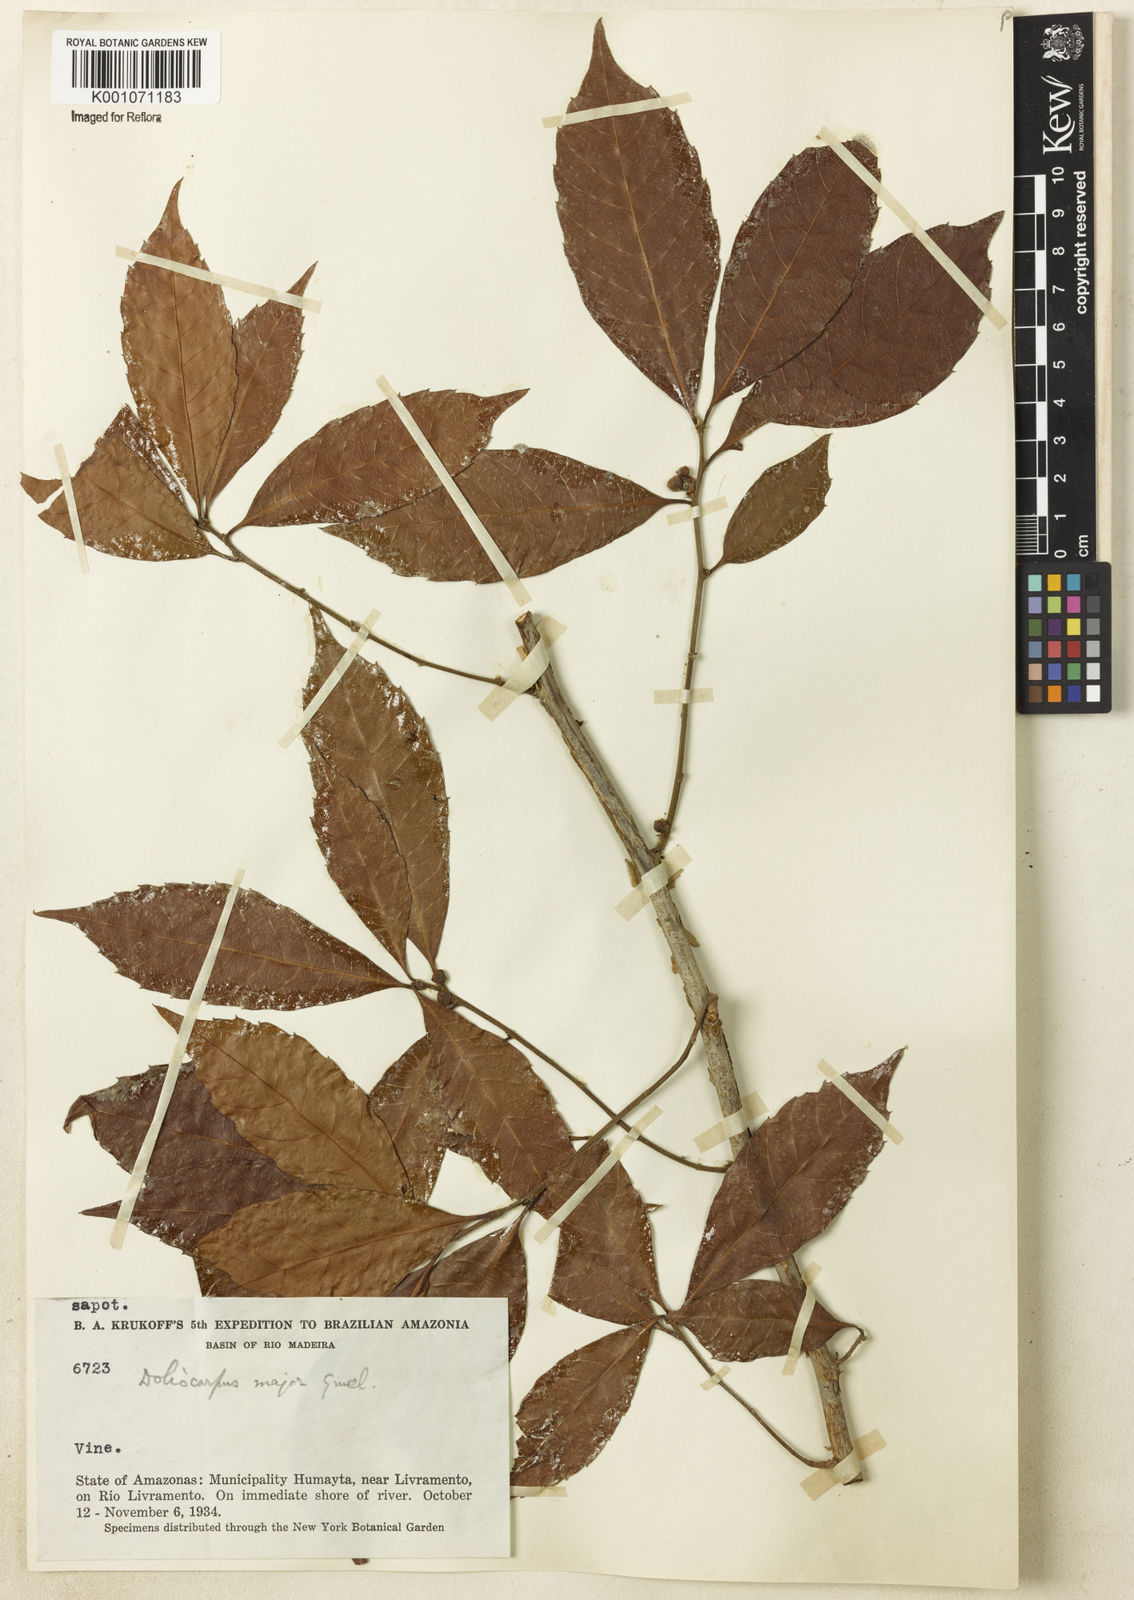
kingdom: Plantae
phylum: Tracheophyta
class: Magnoliopsida
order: Dilleniales
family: Dilleniaceae
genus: Doliocarpus
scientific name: Doliocarpus major
